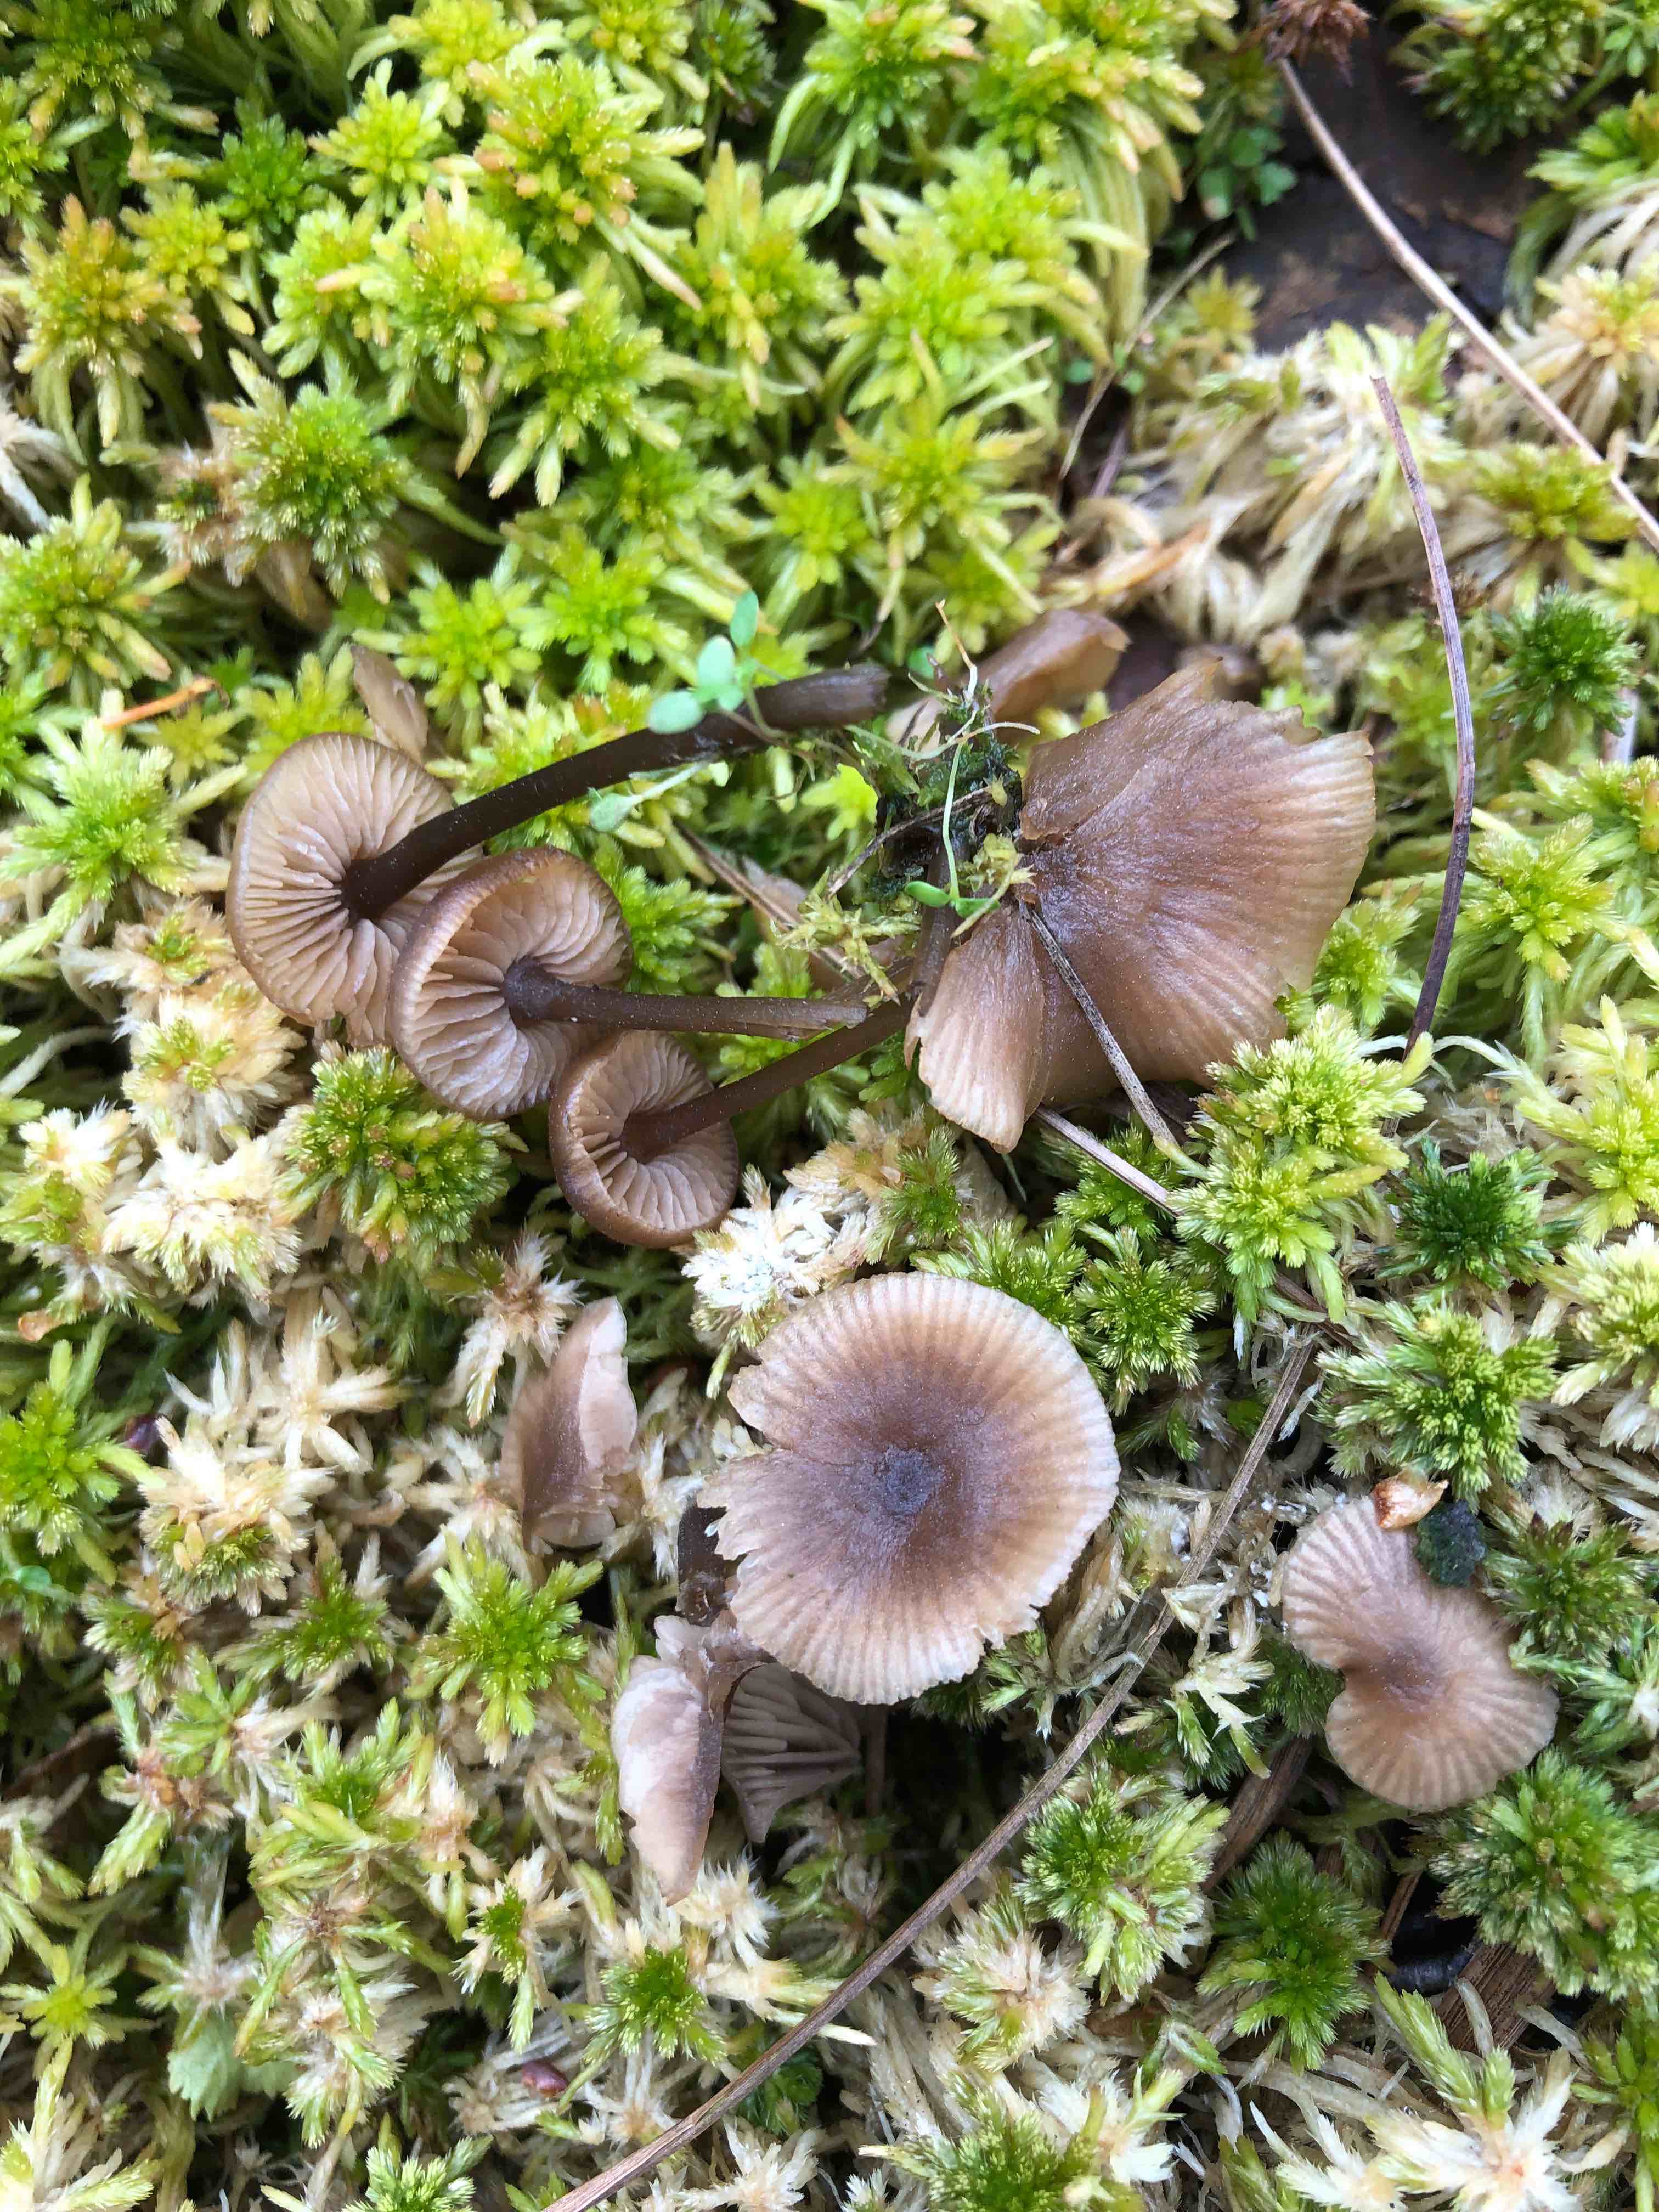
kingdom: Fungi
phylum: Basidiomycota
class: Agaricomycetes
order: Agaricales
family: Lyophyllaceae
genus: Sphagnurus
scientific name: Sphagnurus paluster
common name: tørvemos-gråblad
